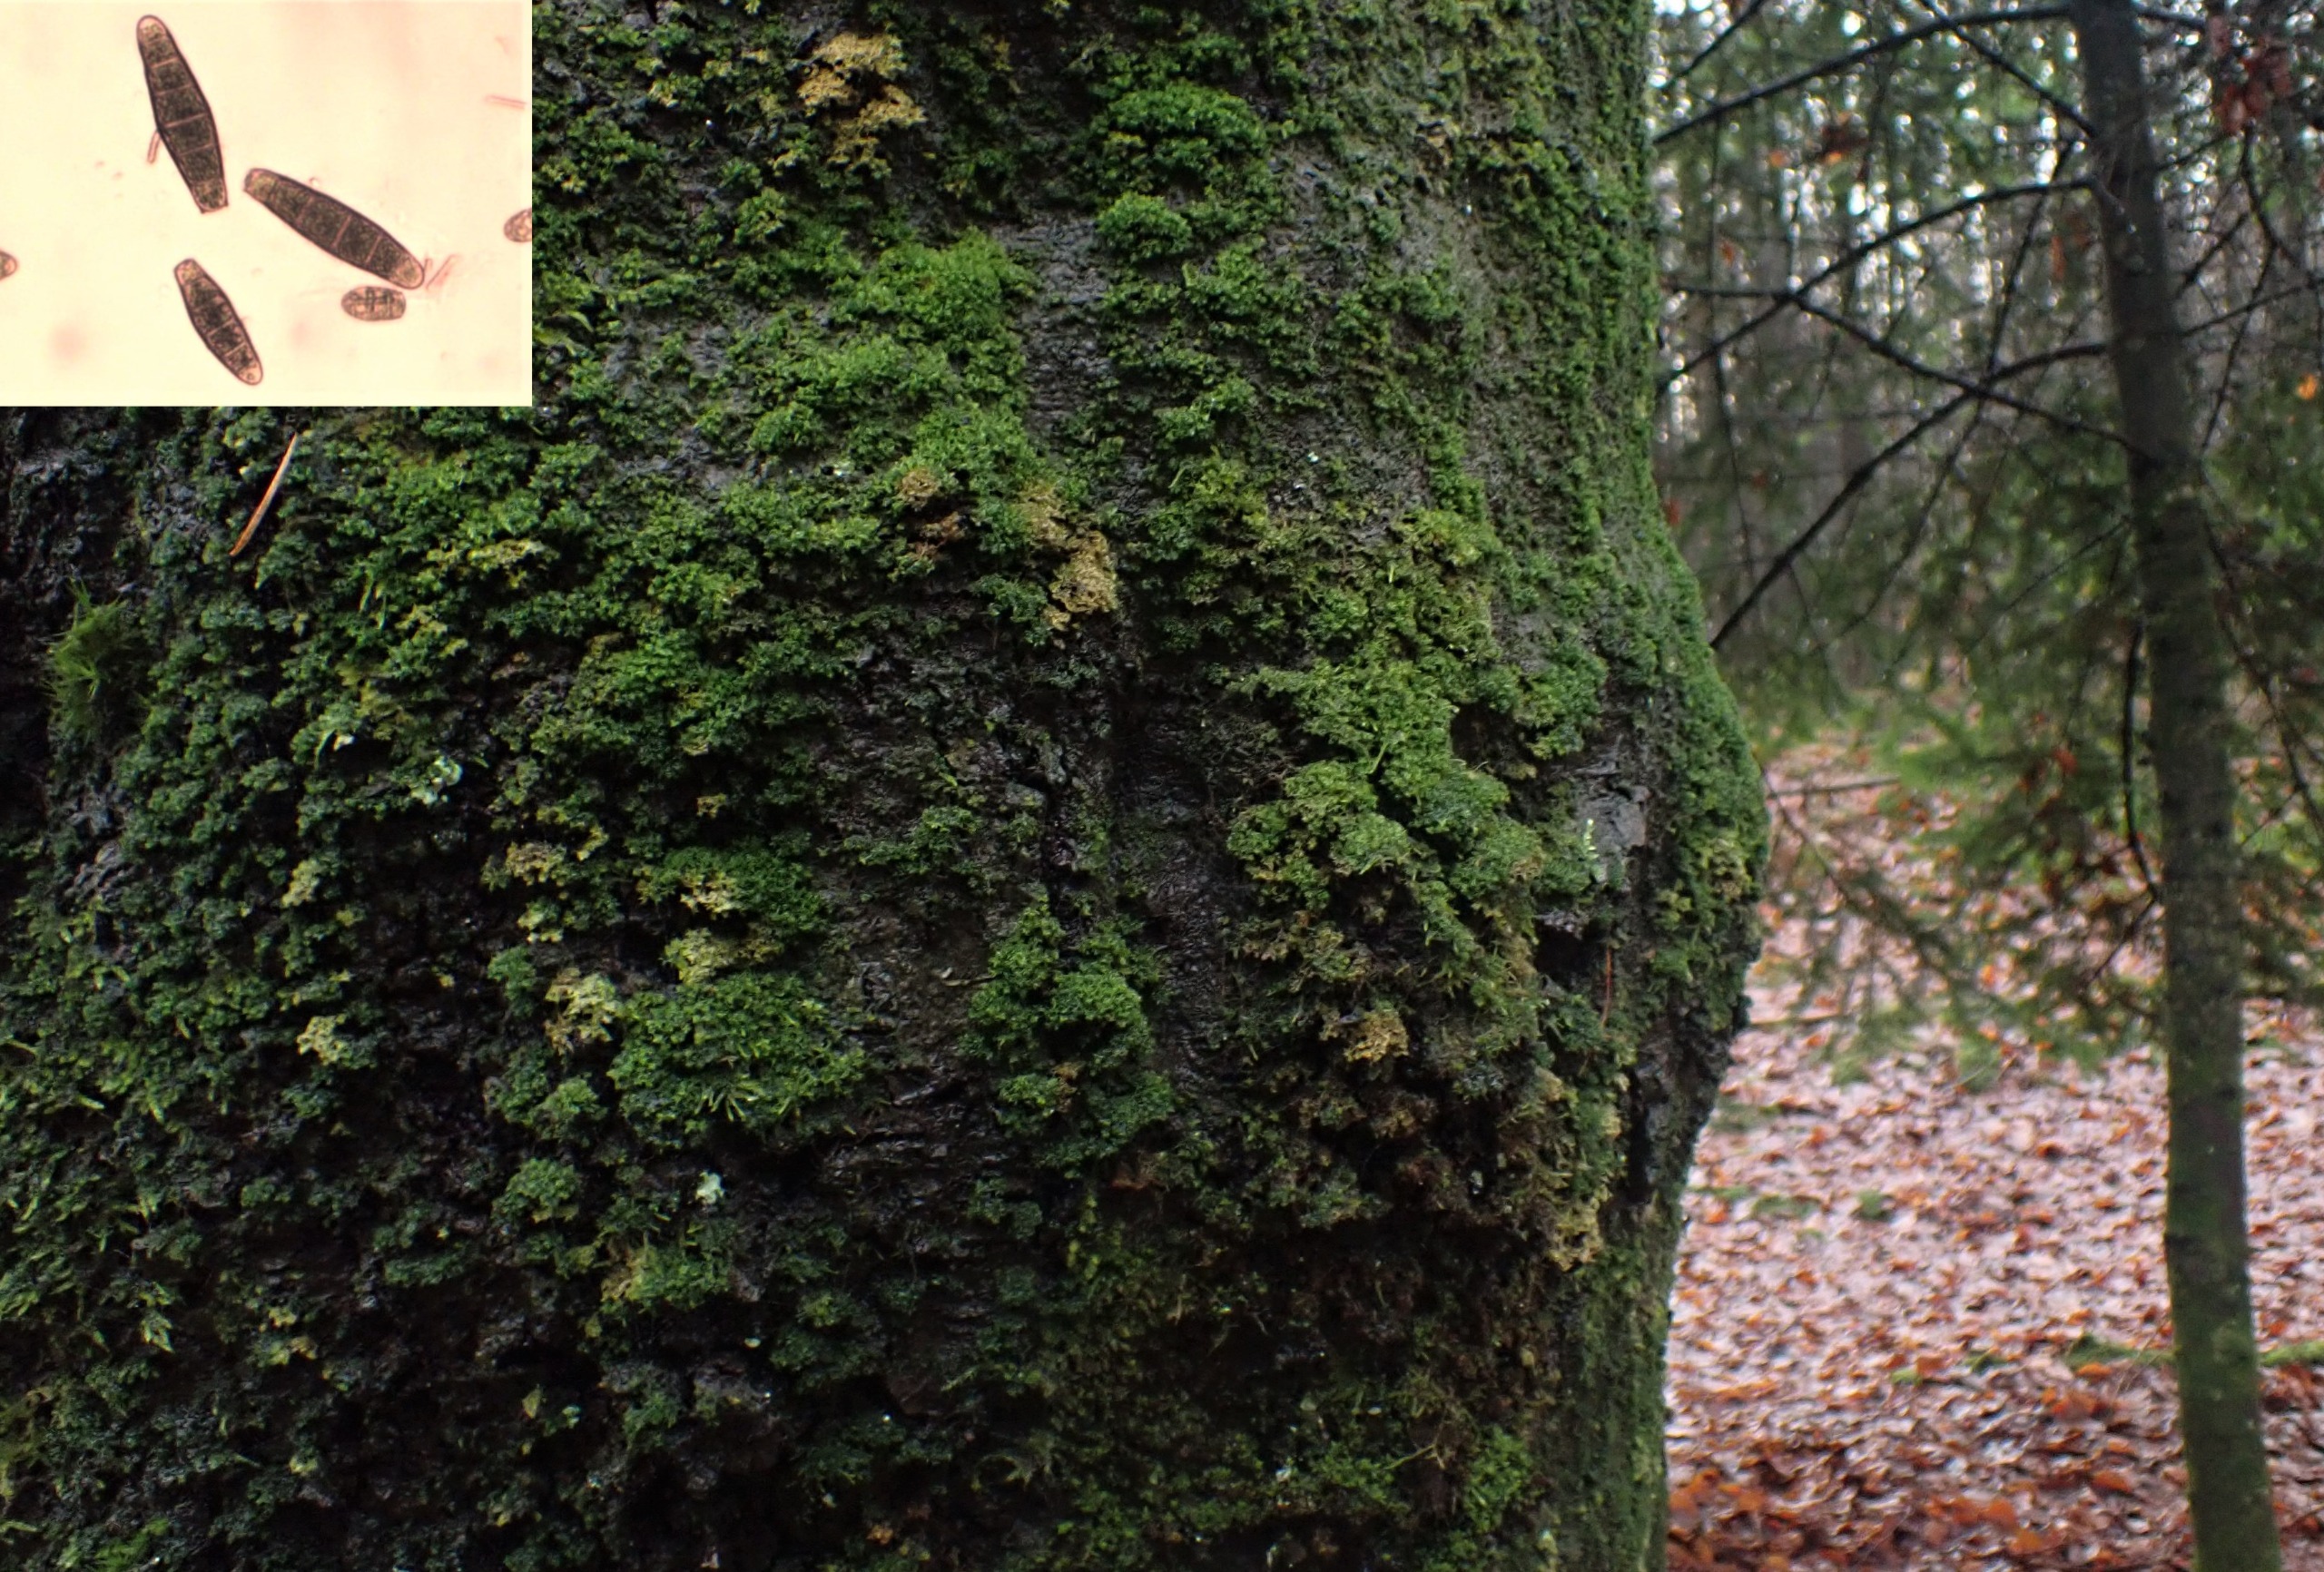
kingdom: Plantae
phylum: Bryophyta
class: Bryopsida
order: Orthotrichales
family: Orthotrichaceae
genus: Zygodon
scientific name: Zygodon conoideus
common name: Tand-køllemos
